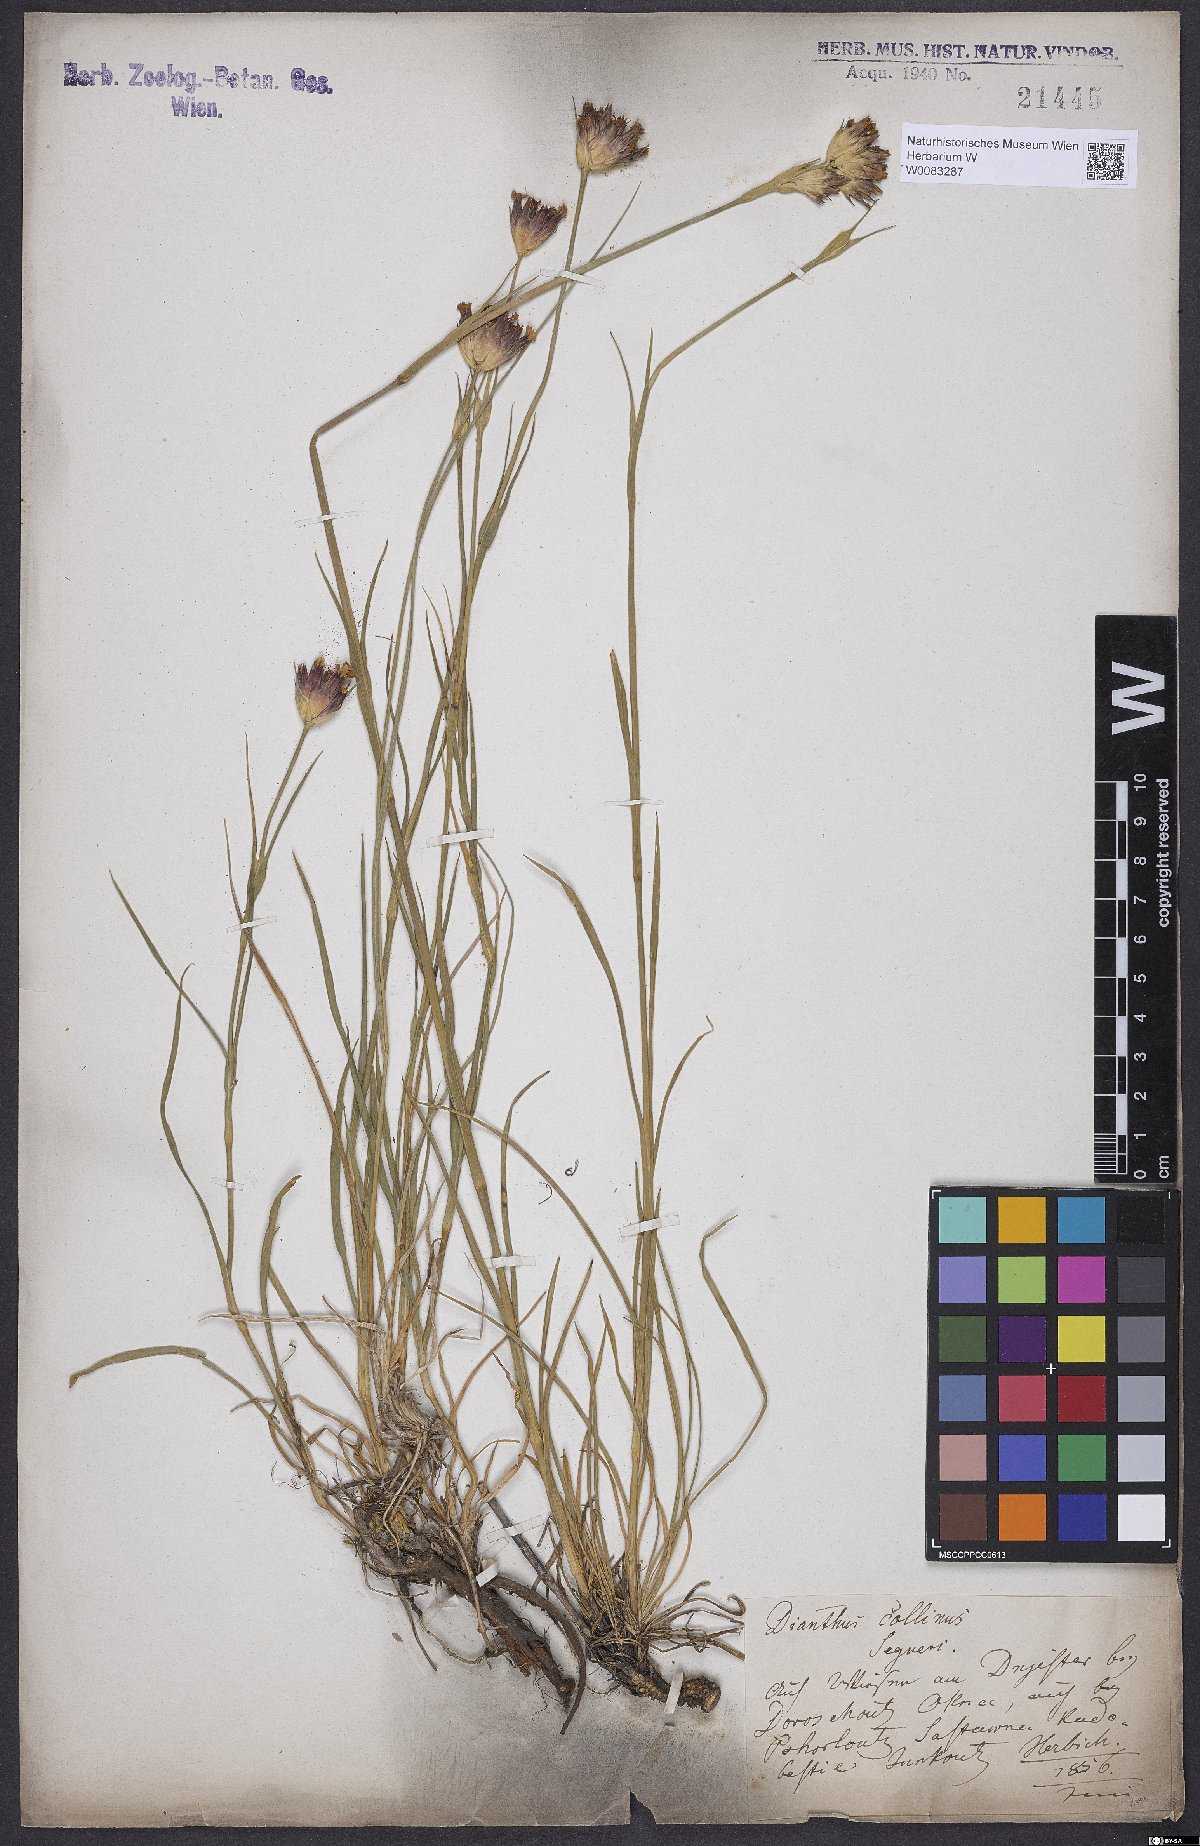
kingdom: Plantae
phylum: Tracheophyta
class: Magnoliopsida
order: Caryophyllales
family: Caryophyllaceae
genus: Dianthus
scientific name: Dianthus collinus
